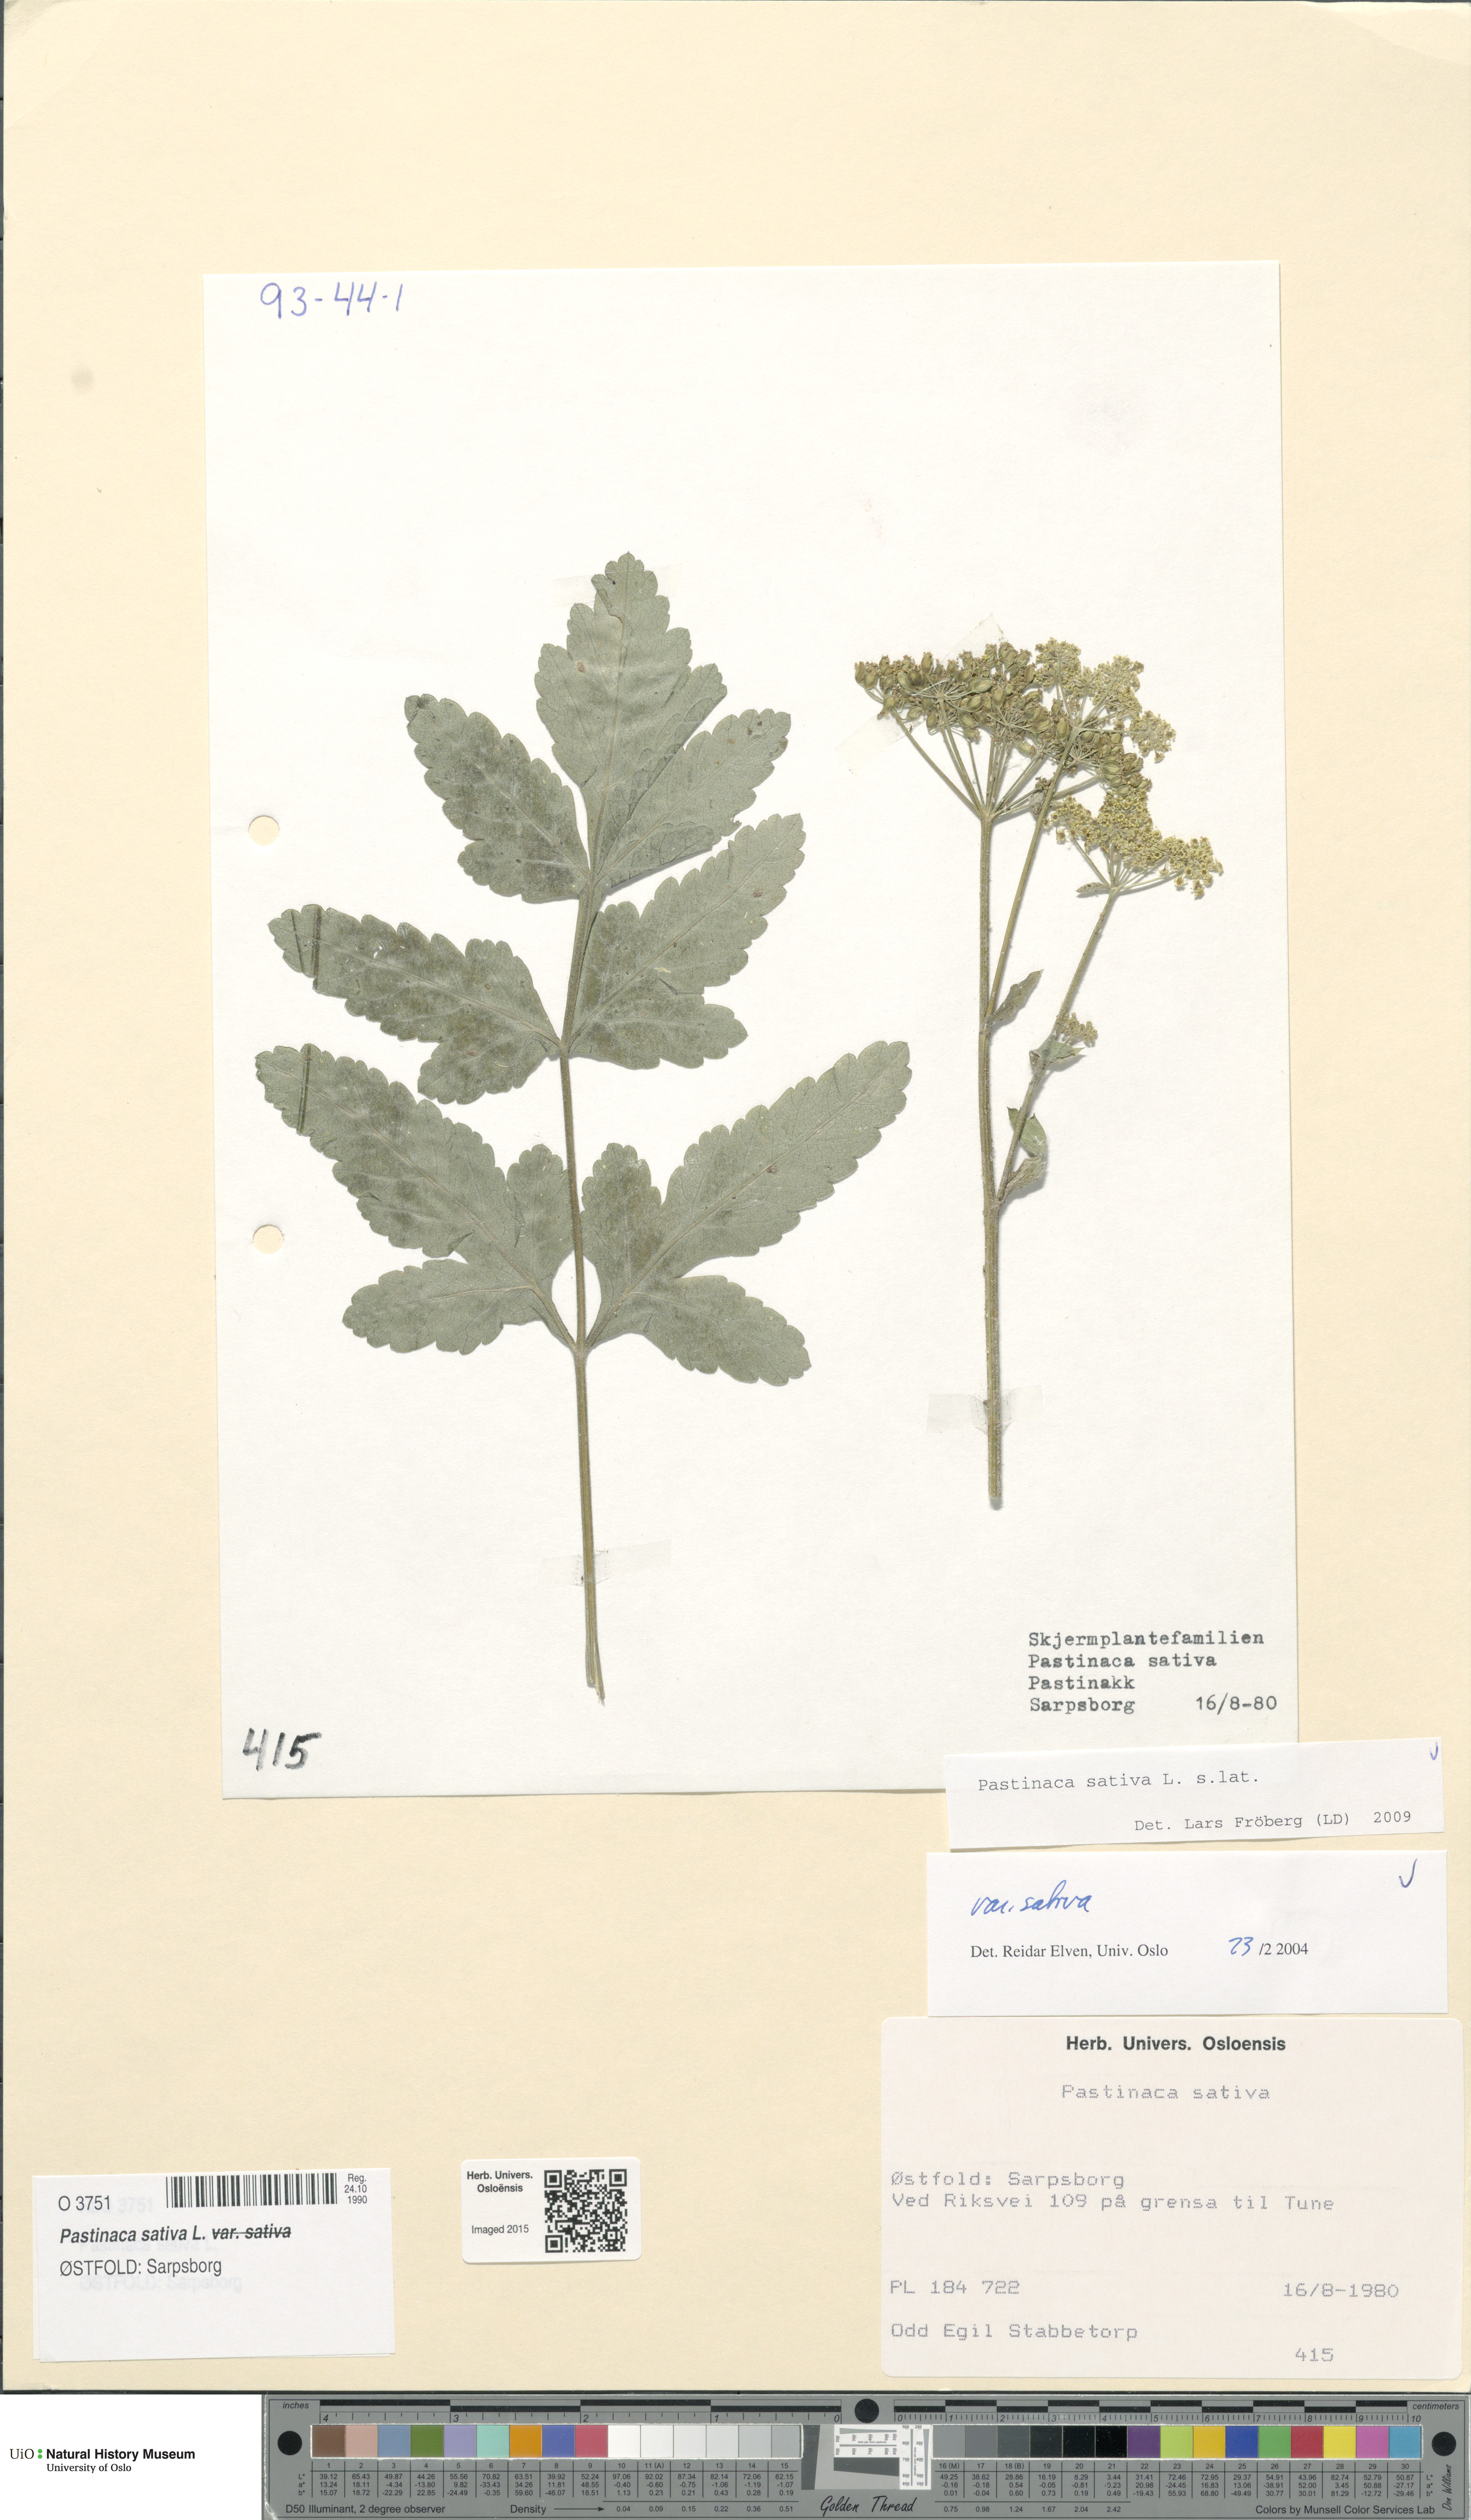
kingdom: Plantae
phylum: Tracheophyta
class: Magnoliopsida
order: Apiales
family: Apiaceae
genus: Pastinaca
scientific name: Pastinaca sativa
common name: Wild parsnip
